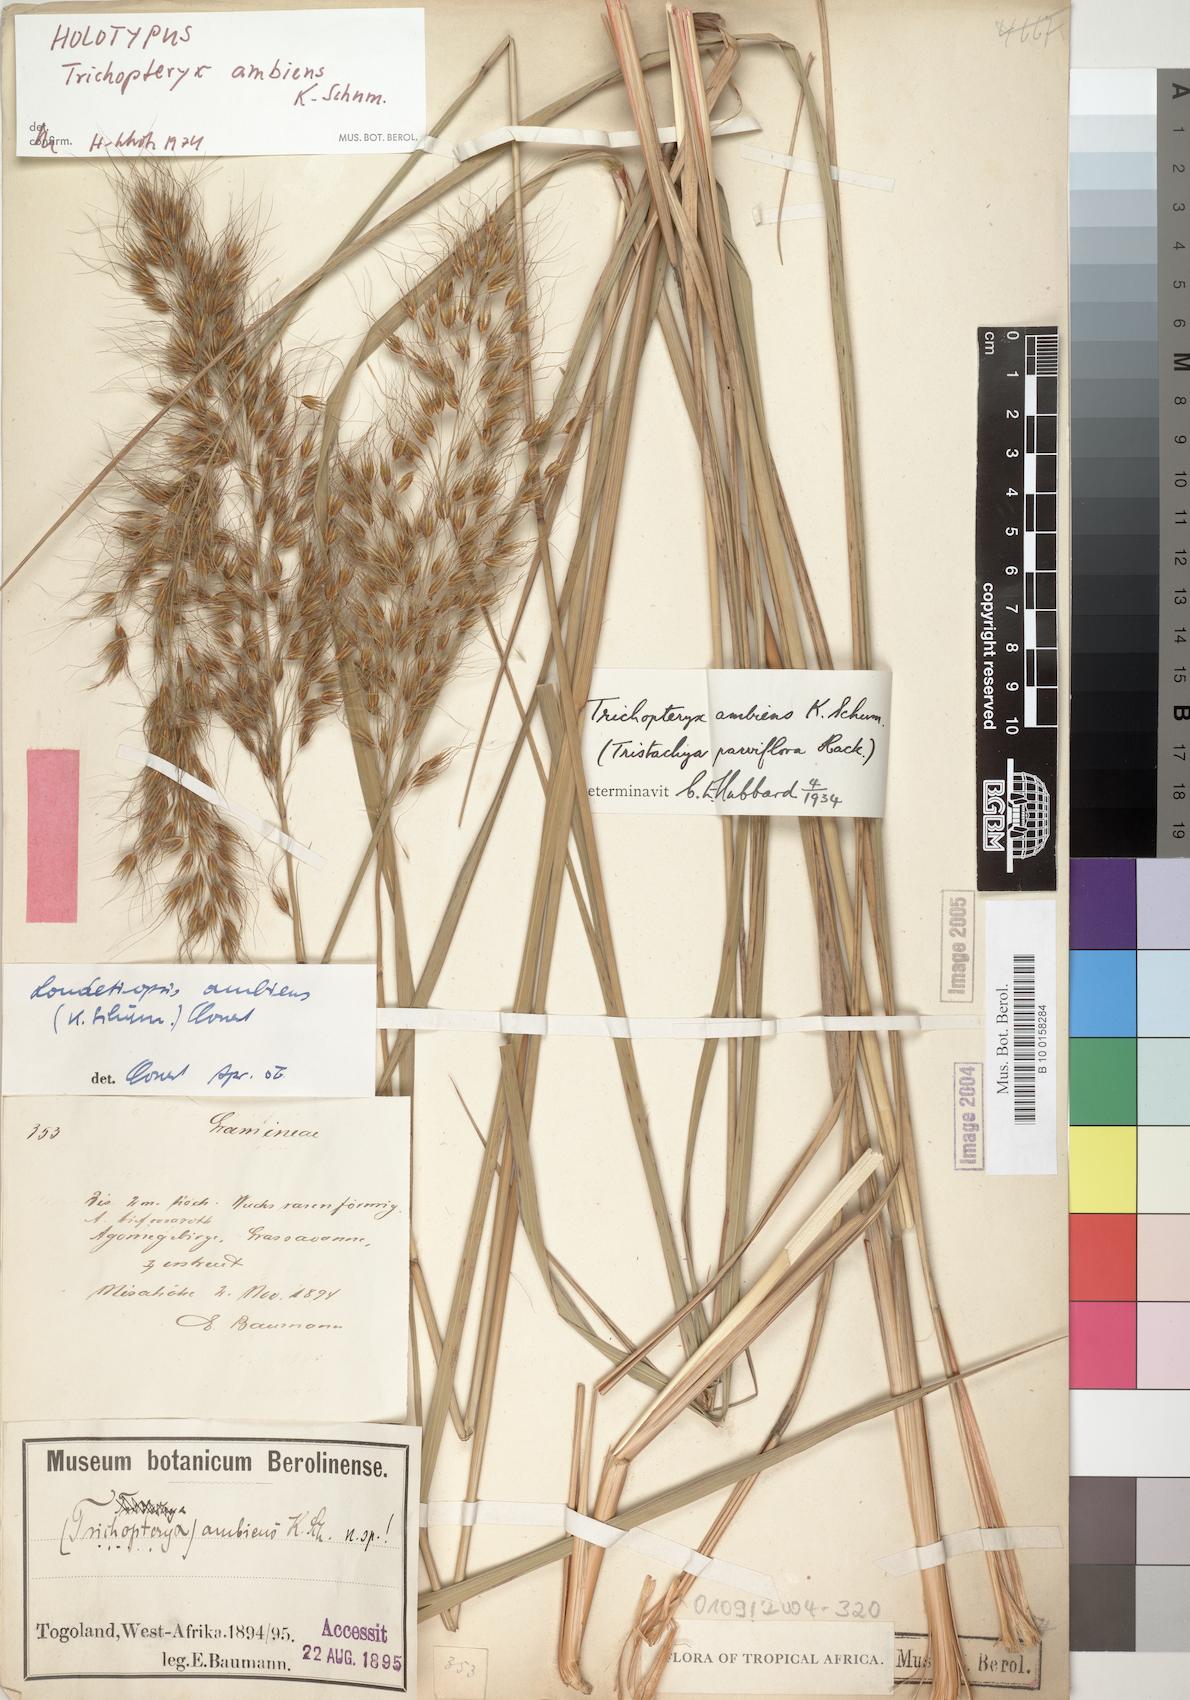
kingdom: Plantae
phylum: Tracheophyta
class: Liliopsida
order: Poales
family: Poaceae
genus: Loudetiopsis
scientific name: Loudetiopsis ambiens
